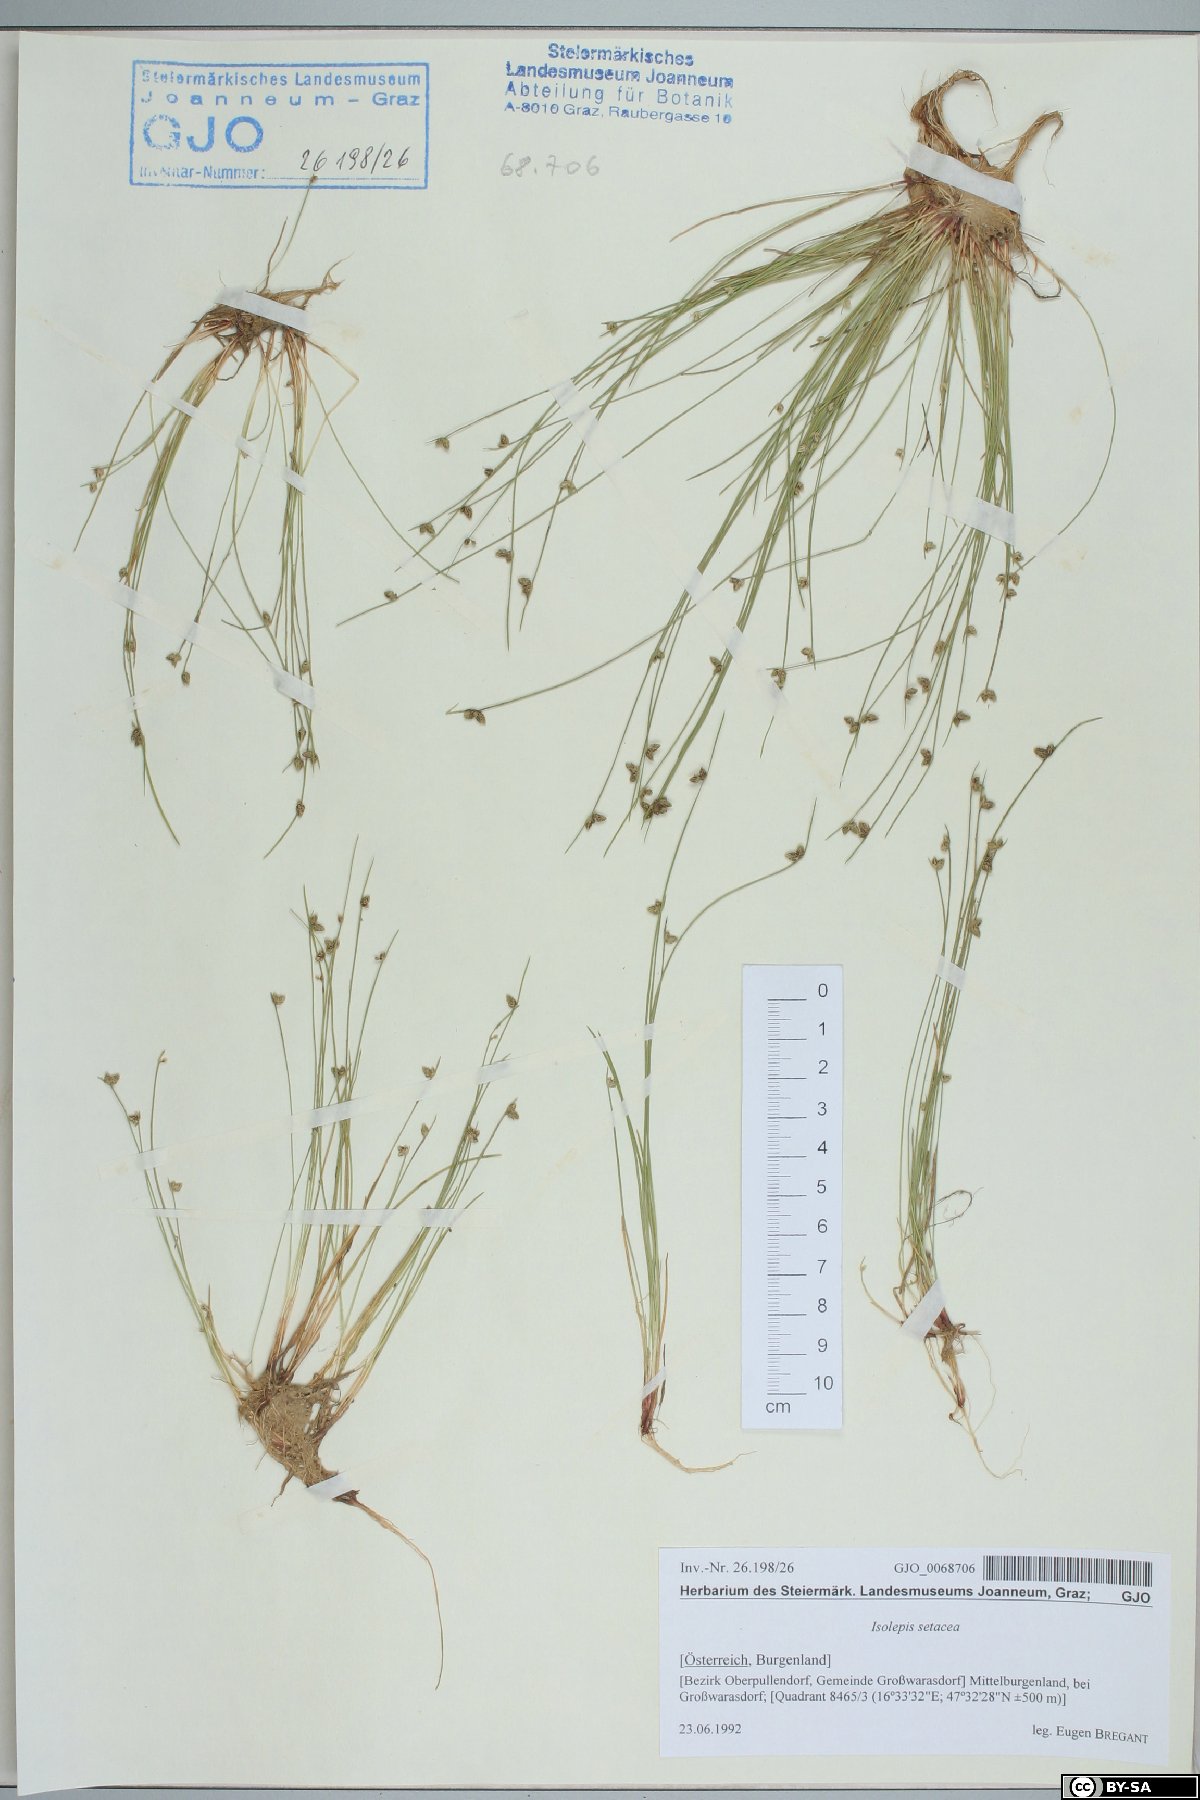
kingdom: Plantae
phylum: Tracheophyta
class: Liliopsida
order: Poales
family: Cyperaceae
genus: Isolepis
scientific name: Isolepis setacea
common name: Bristle club-rush
